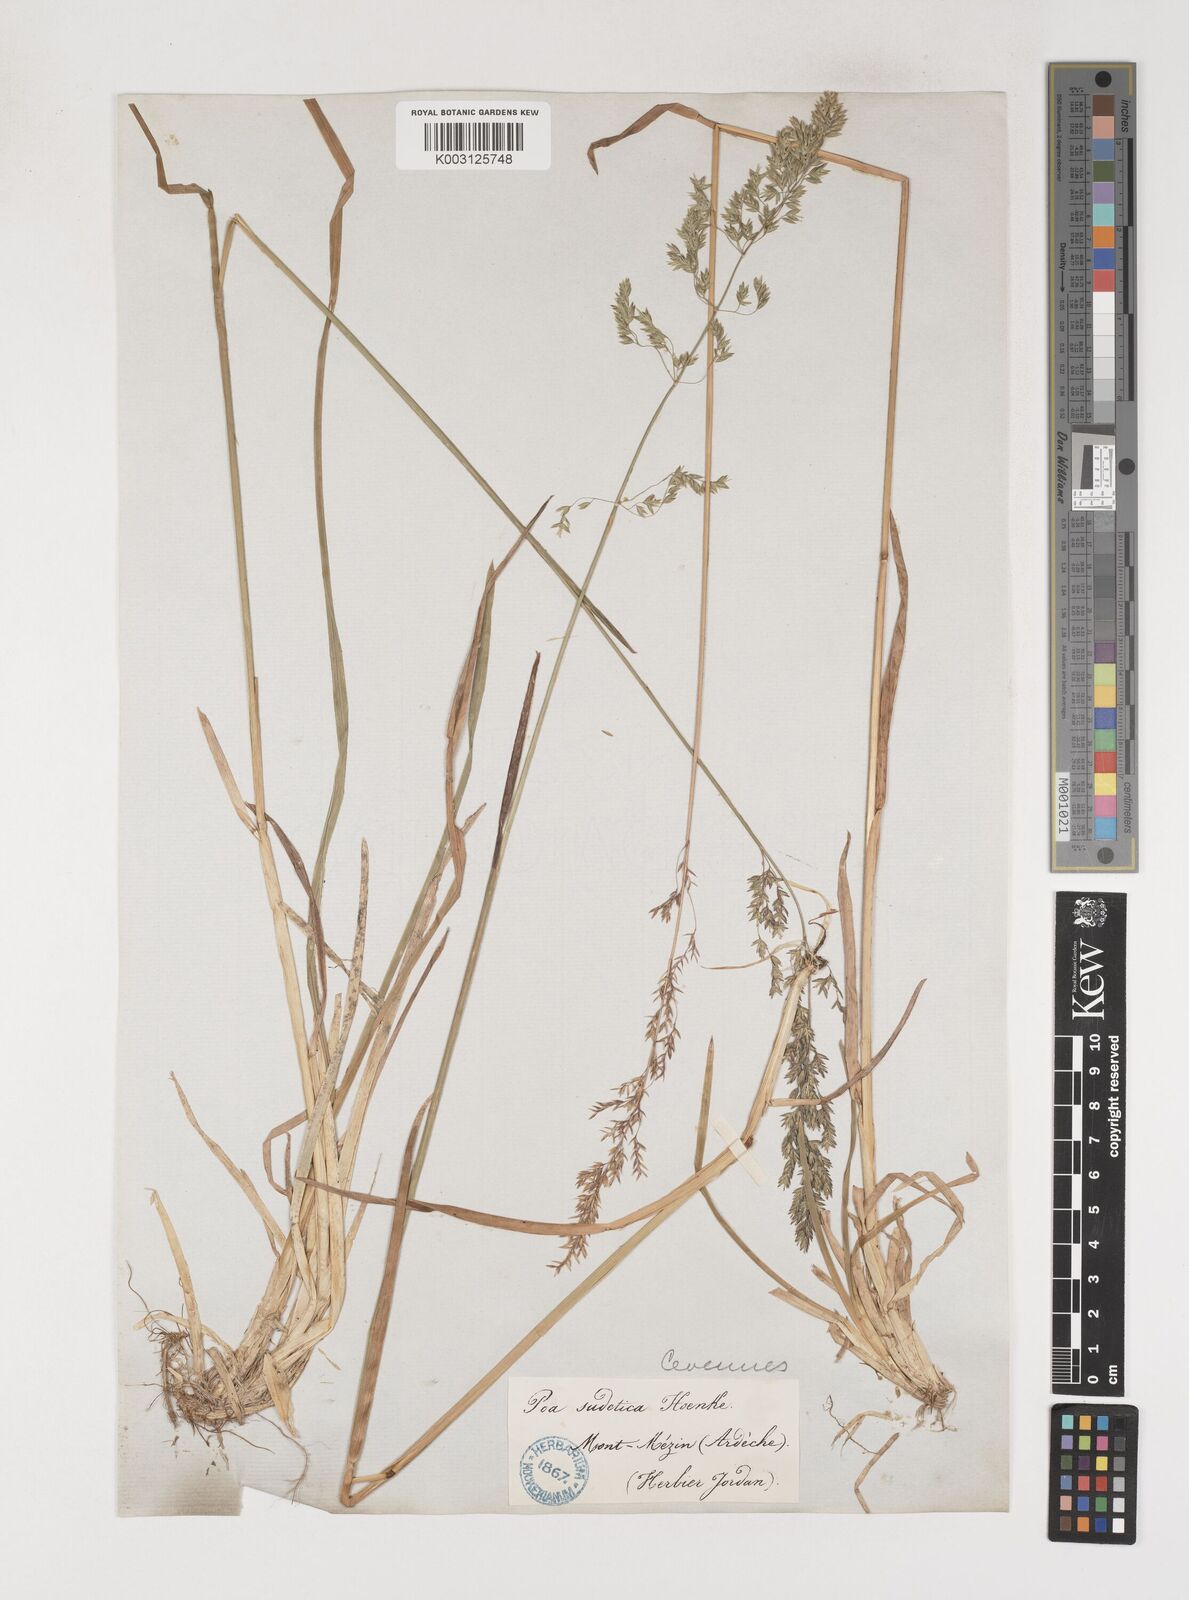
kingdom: Plantae
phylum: Tracheophyta
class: Liliopsida
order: Poales
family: Poaceae
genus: Poa
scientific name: Poa chaixii
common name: Broad-leaved meadow-grass
